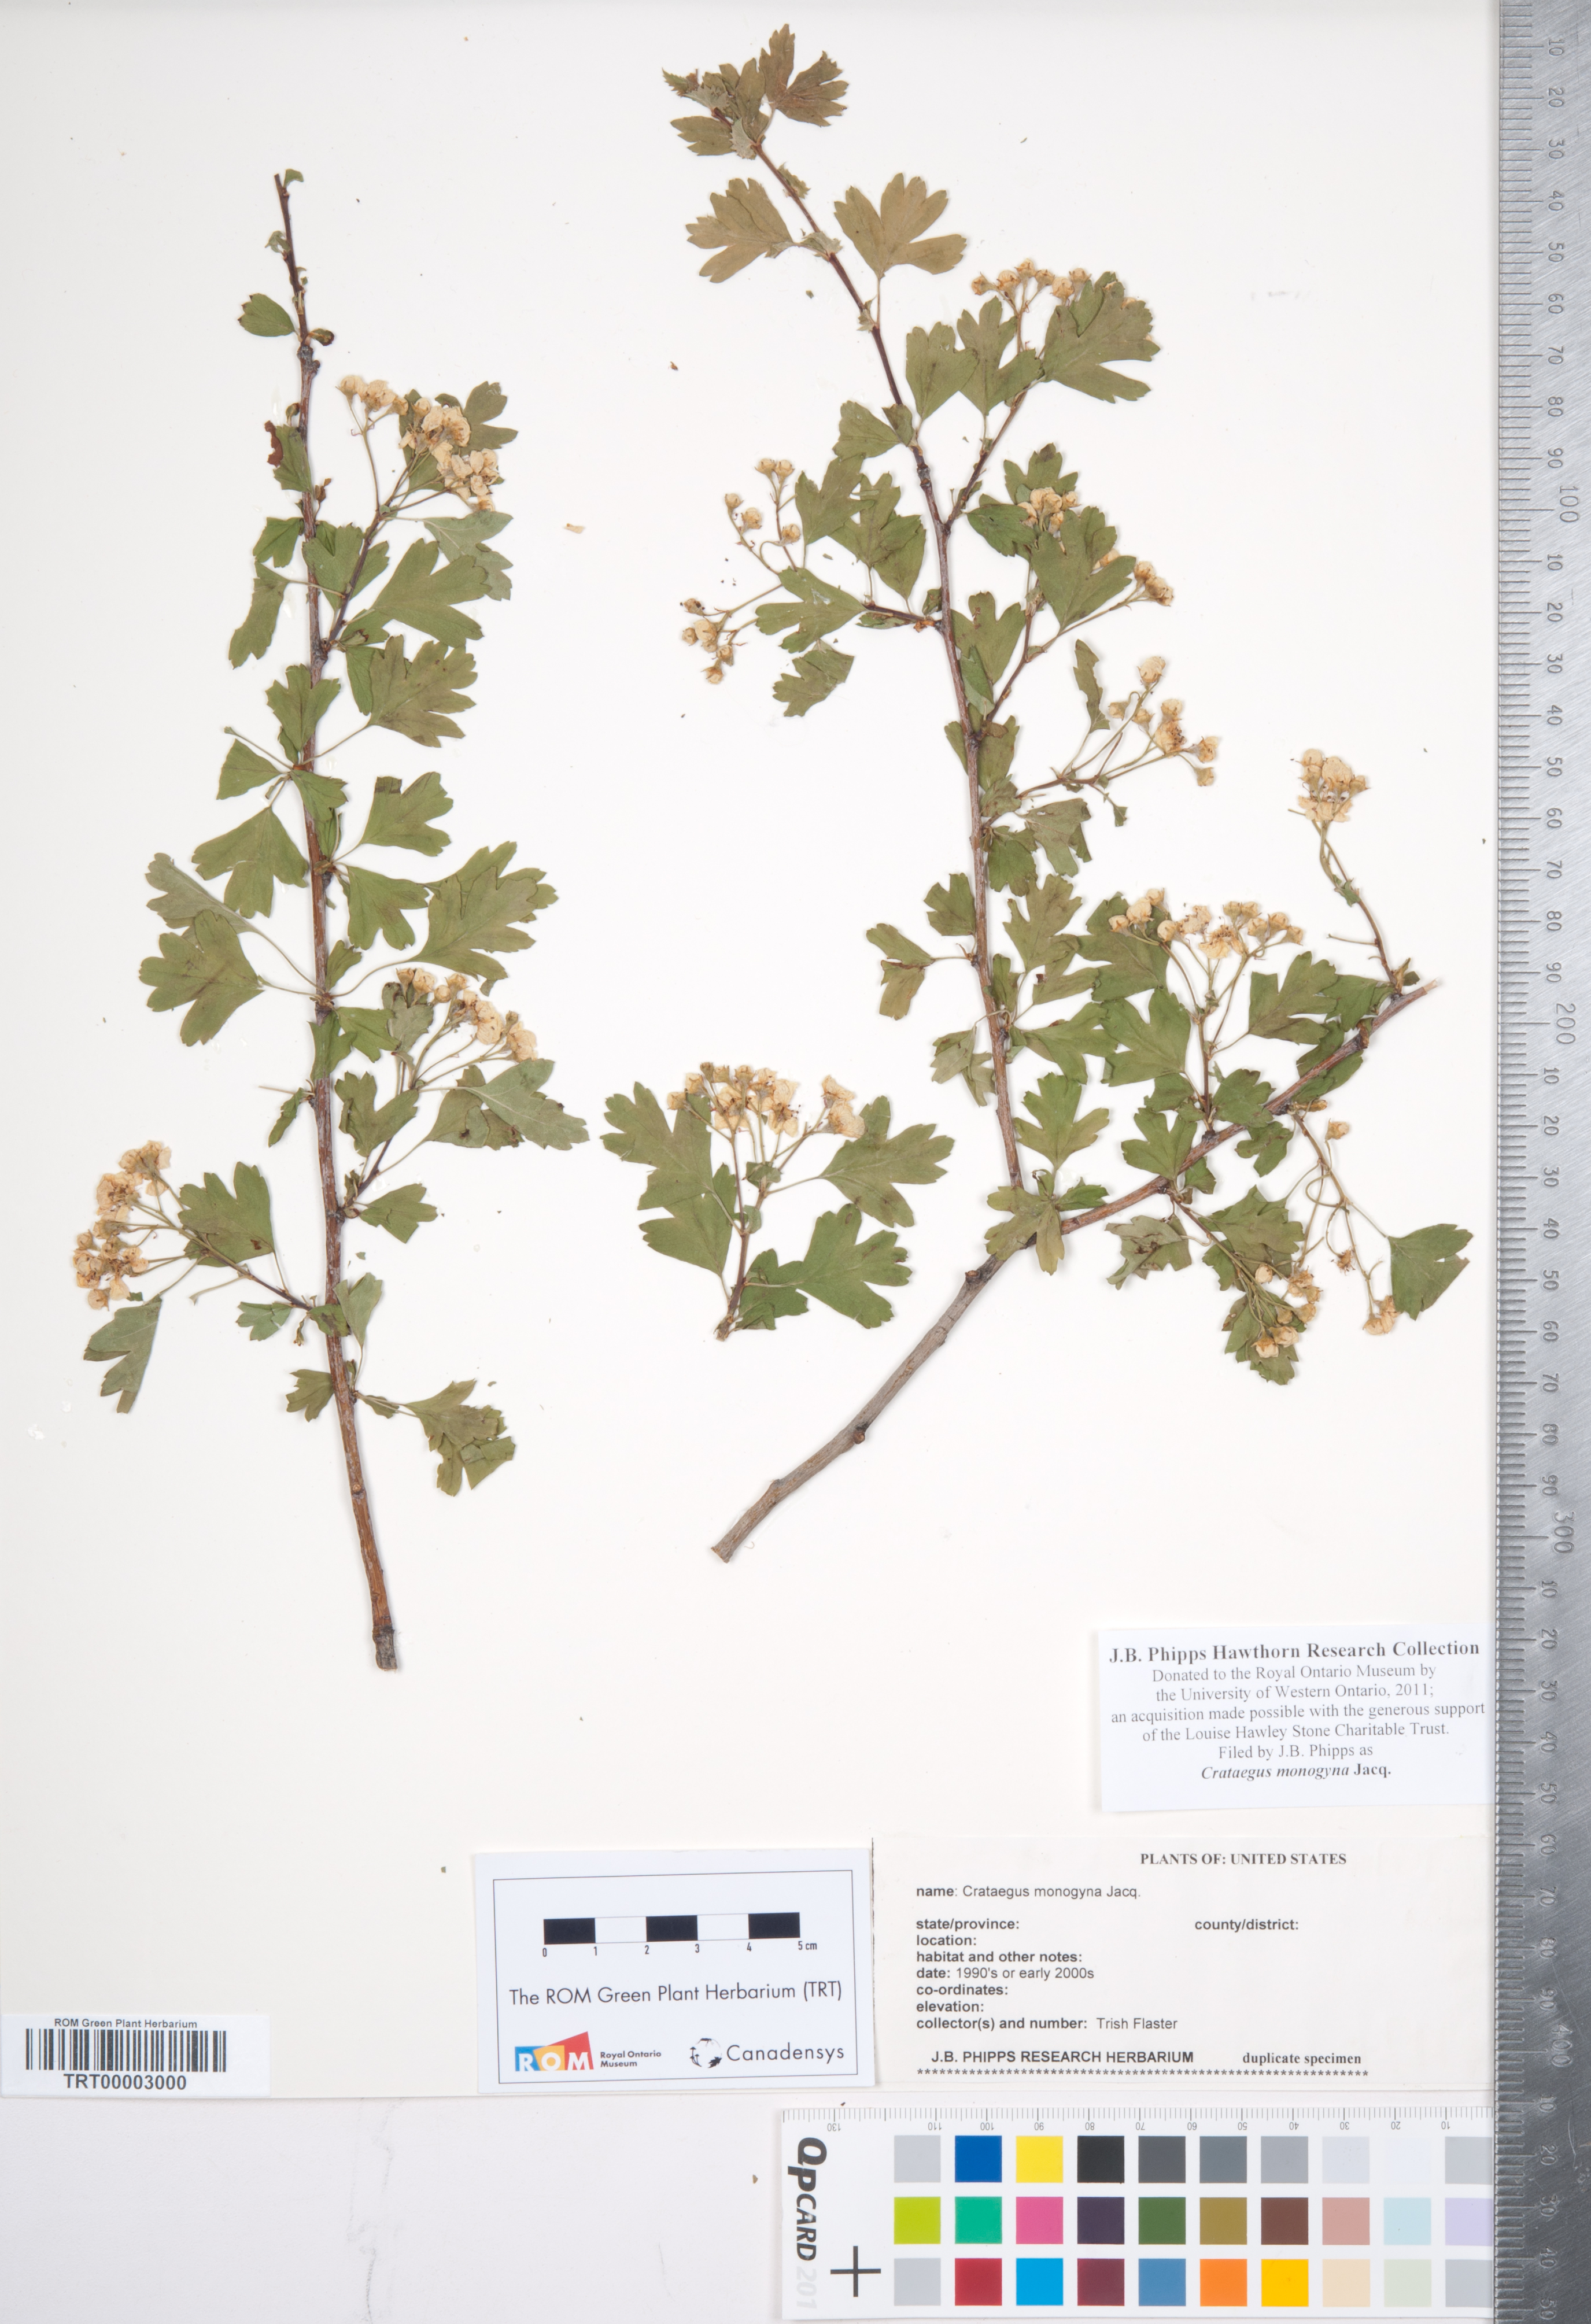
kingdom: Plantae
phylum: Tracheophyta
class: Magnoliopsida
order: Rosales
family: Rosaceae
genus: Crataegus
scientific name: Crataegus monogyna
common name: Hawthorn
